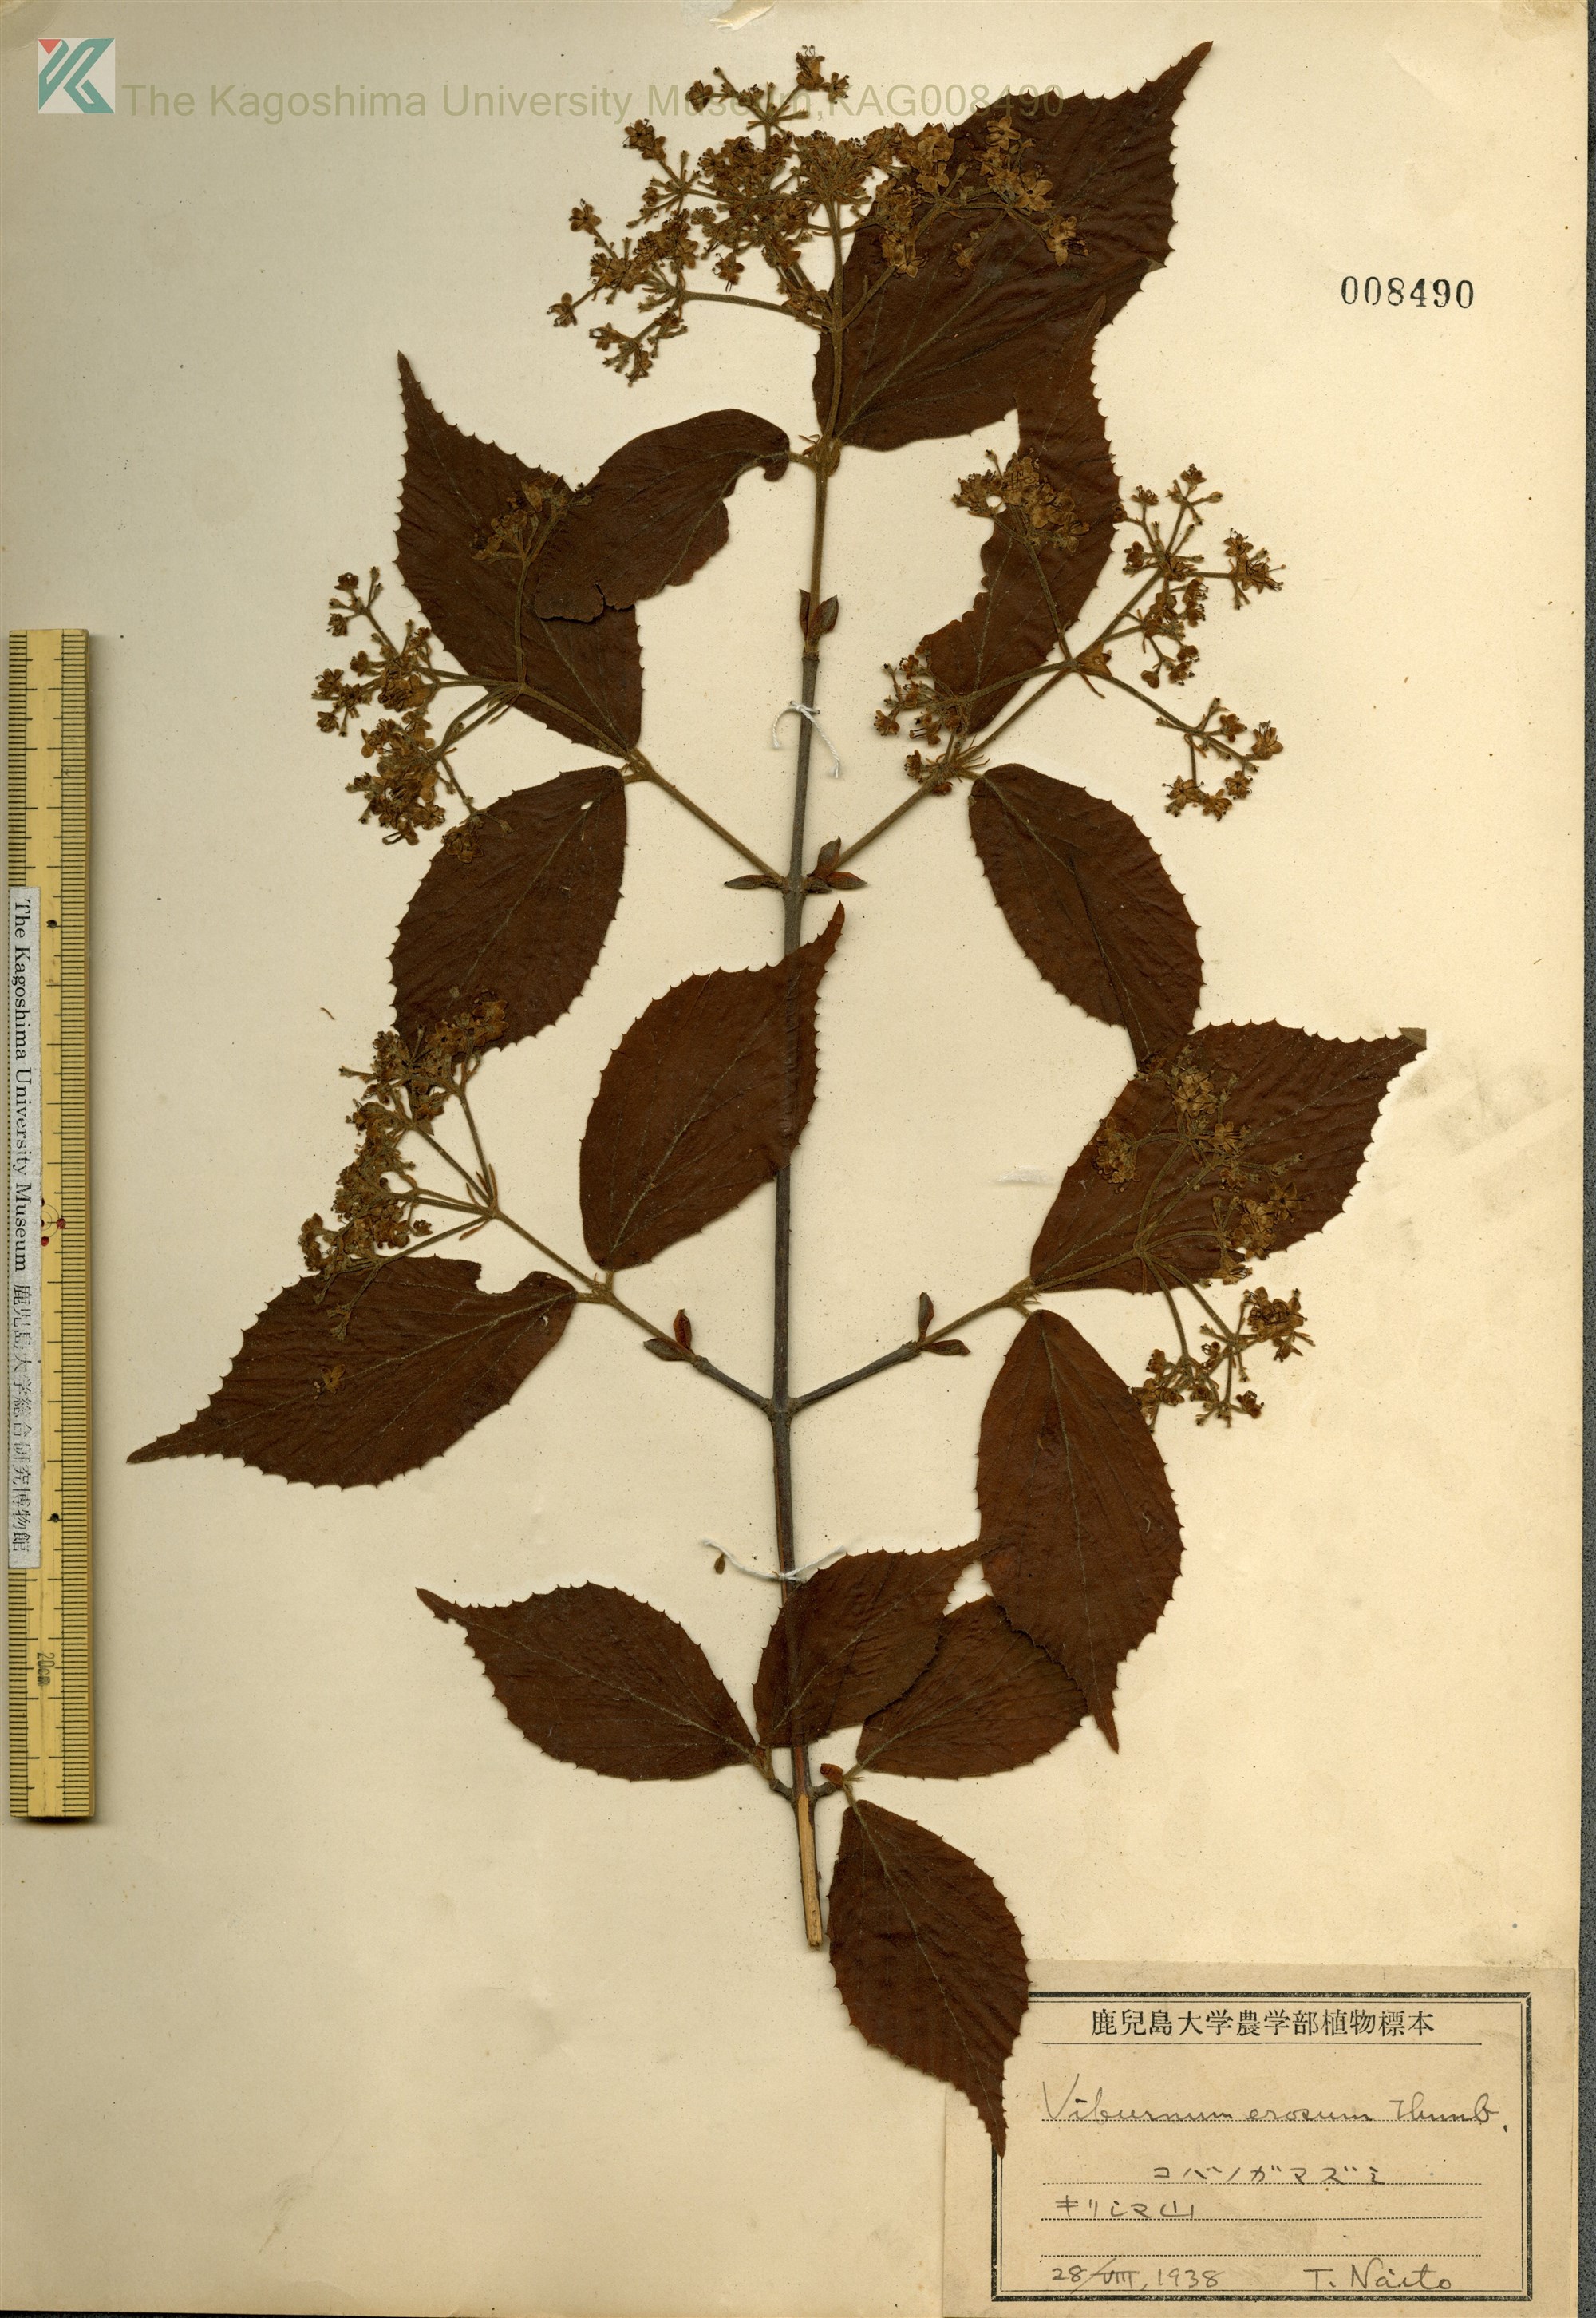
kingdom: Plantae
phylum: Tracheophyta
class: Magnoliopsida
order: Dipsacales
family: Viburnaceae
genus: Viburnum
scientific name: Viburnum erosum
